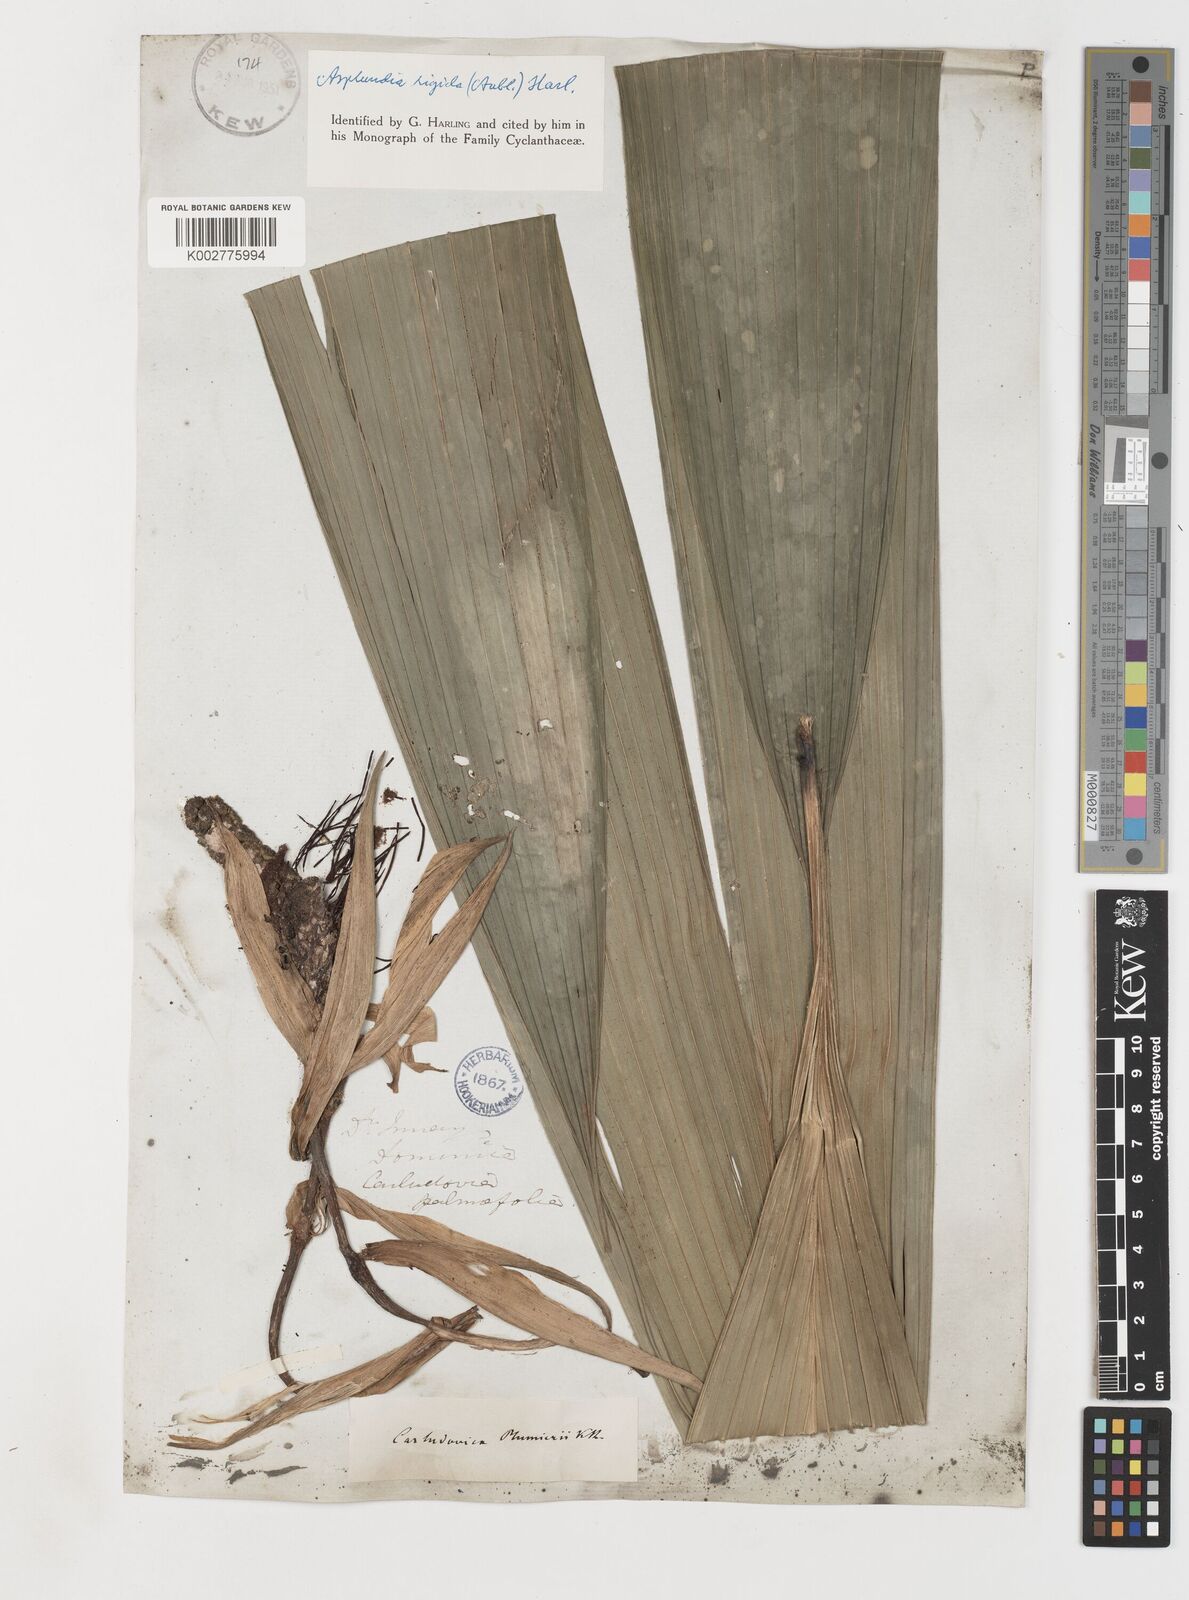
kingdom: Plantae
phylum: Tracheophyta
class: Liliopsida
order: Pandanales
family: Cyclanthaceae
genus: Asplundia
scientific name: Asplundia rigida
